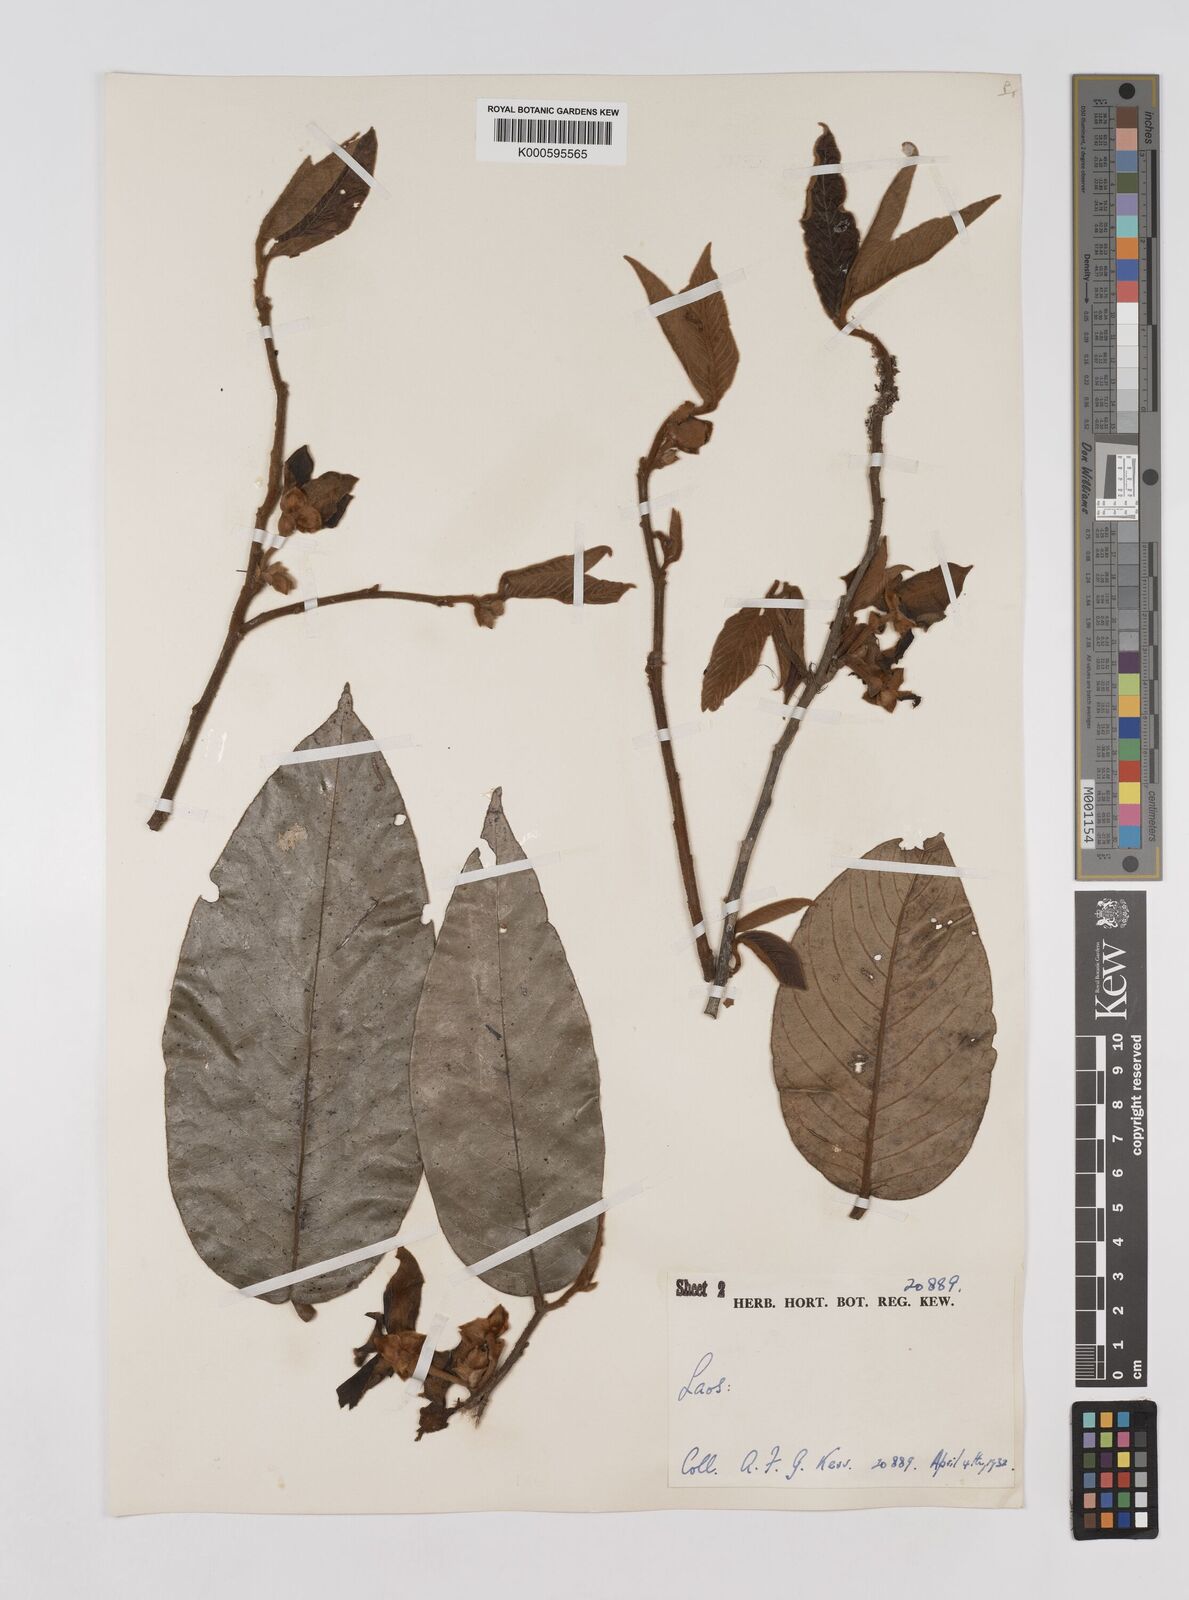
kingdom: Plantae
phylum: Tracheophyta
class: Magnoliopsida
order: Magnoliales
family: Annonaceae
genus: Mitrephora
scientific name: Mitrephora
